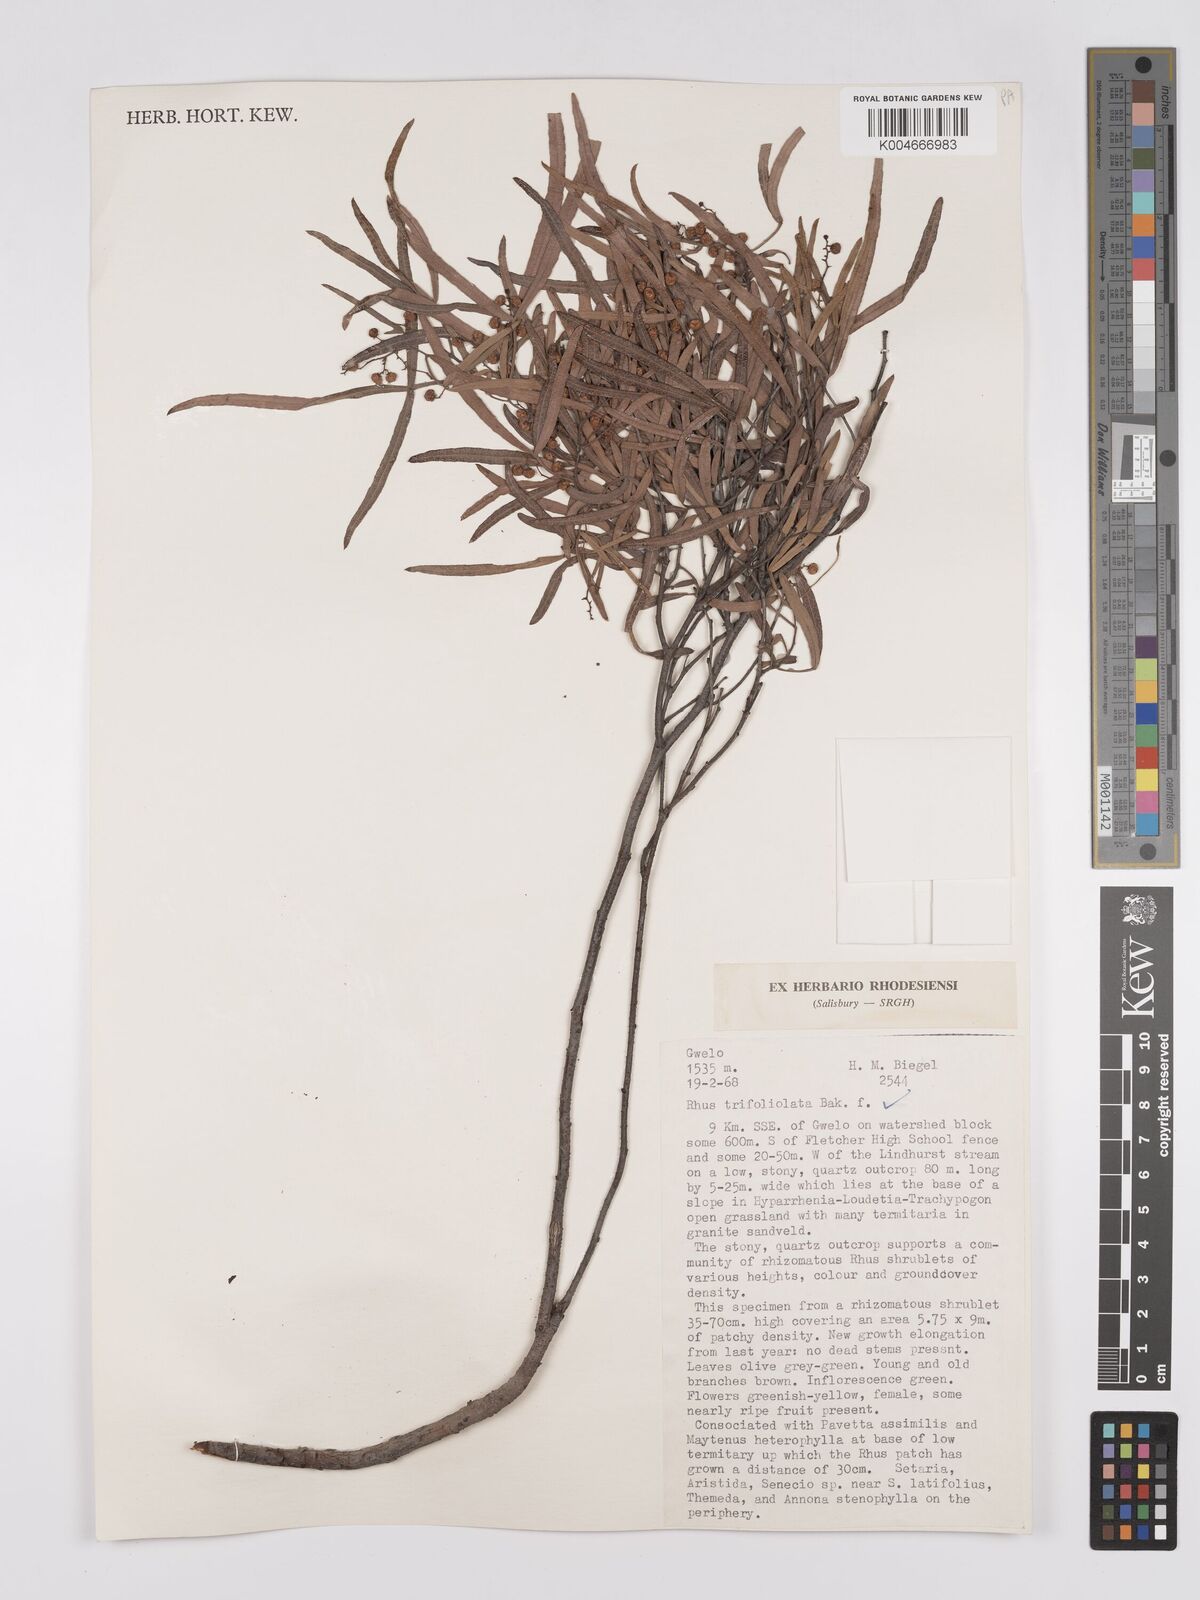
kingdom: Plantae
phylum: Tracheophyta
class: Magnoliopsida
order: Sapindales
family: Anacardiaceae
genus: Rhus
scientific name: Rhus
